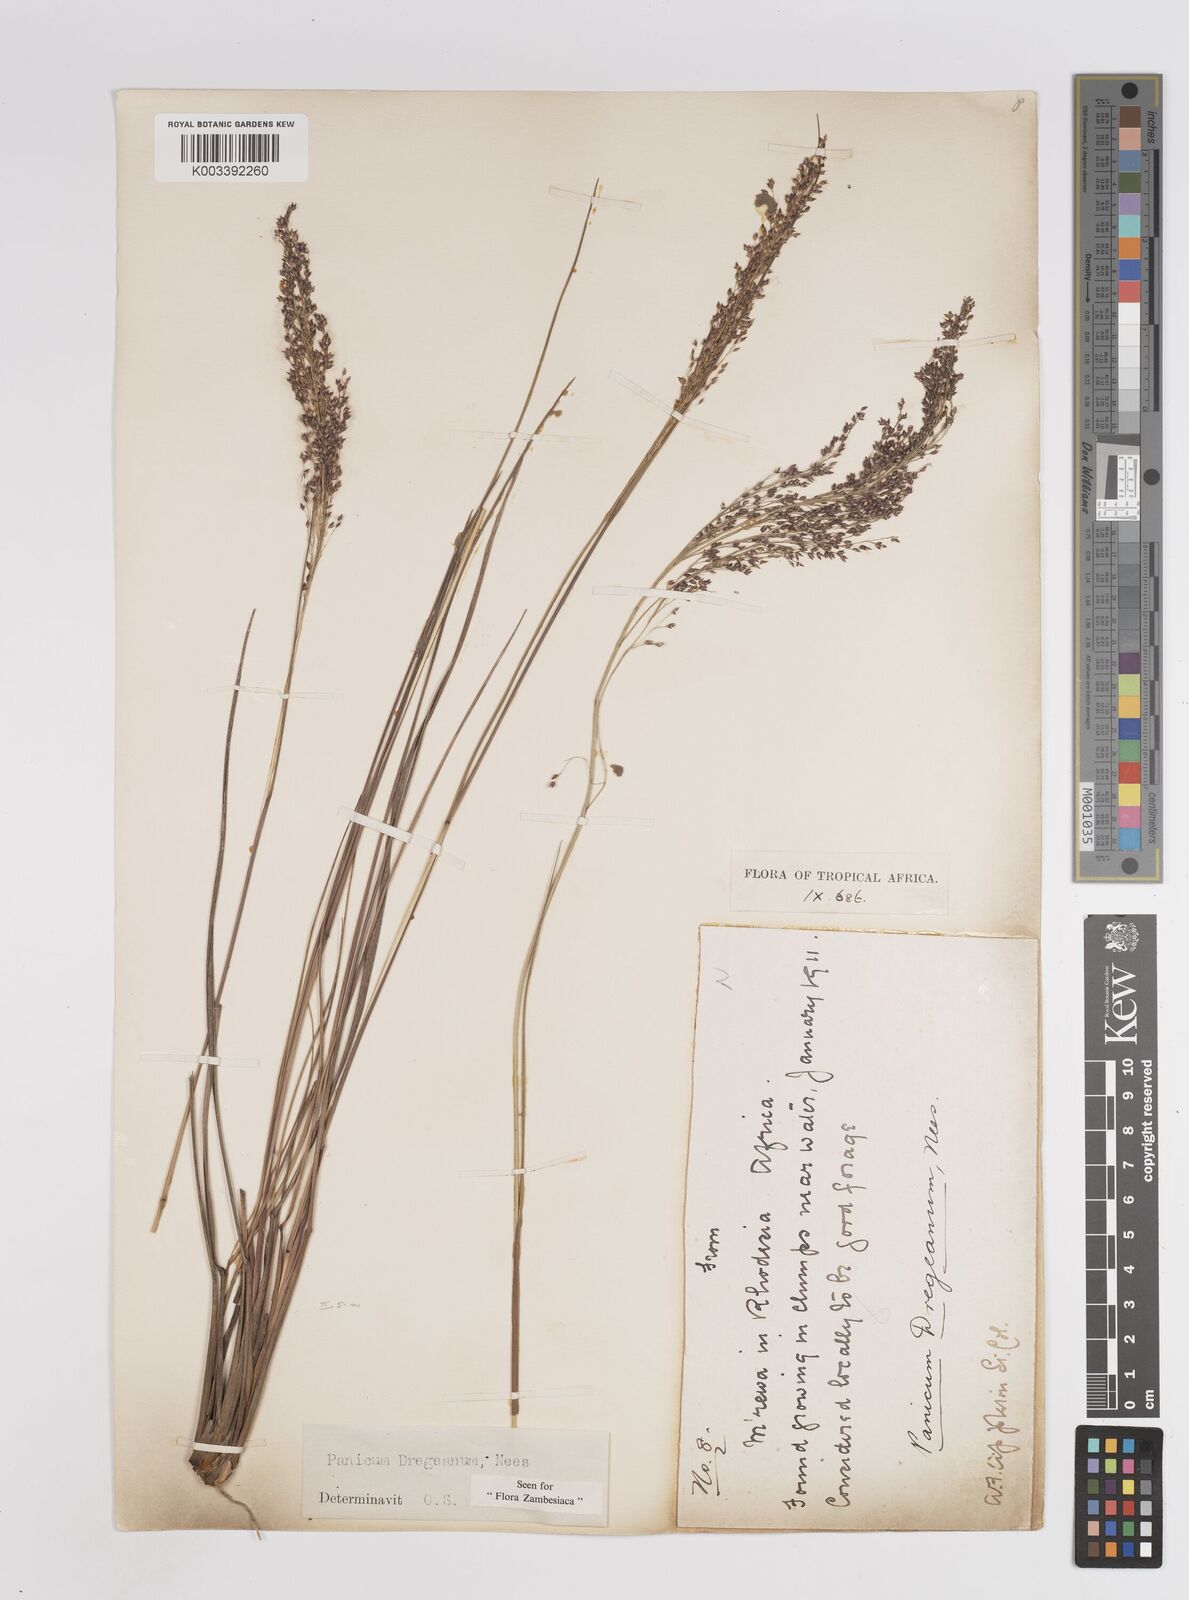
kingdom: Plantae
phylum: Tracheophyta
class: Liliopsida
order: Poales
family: Poaceae
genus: Panicum
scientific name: Panicum dregeanum
